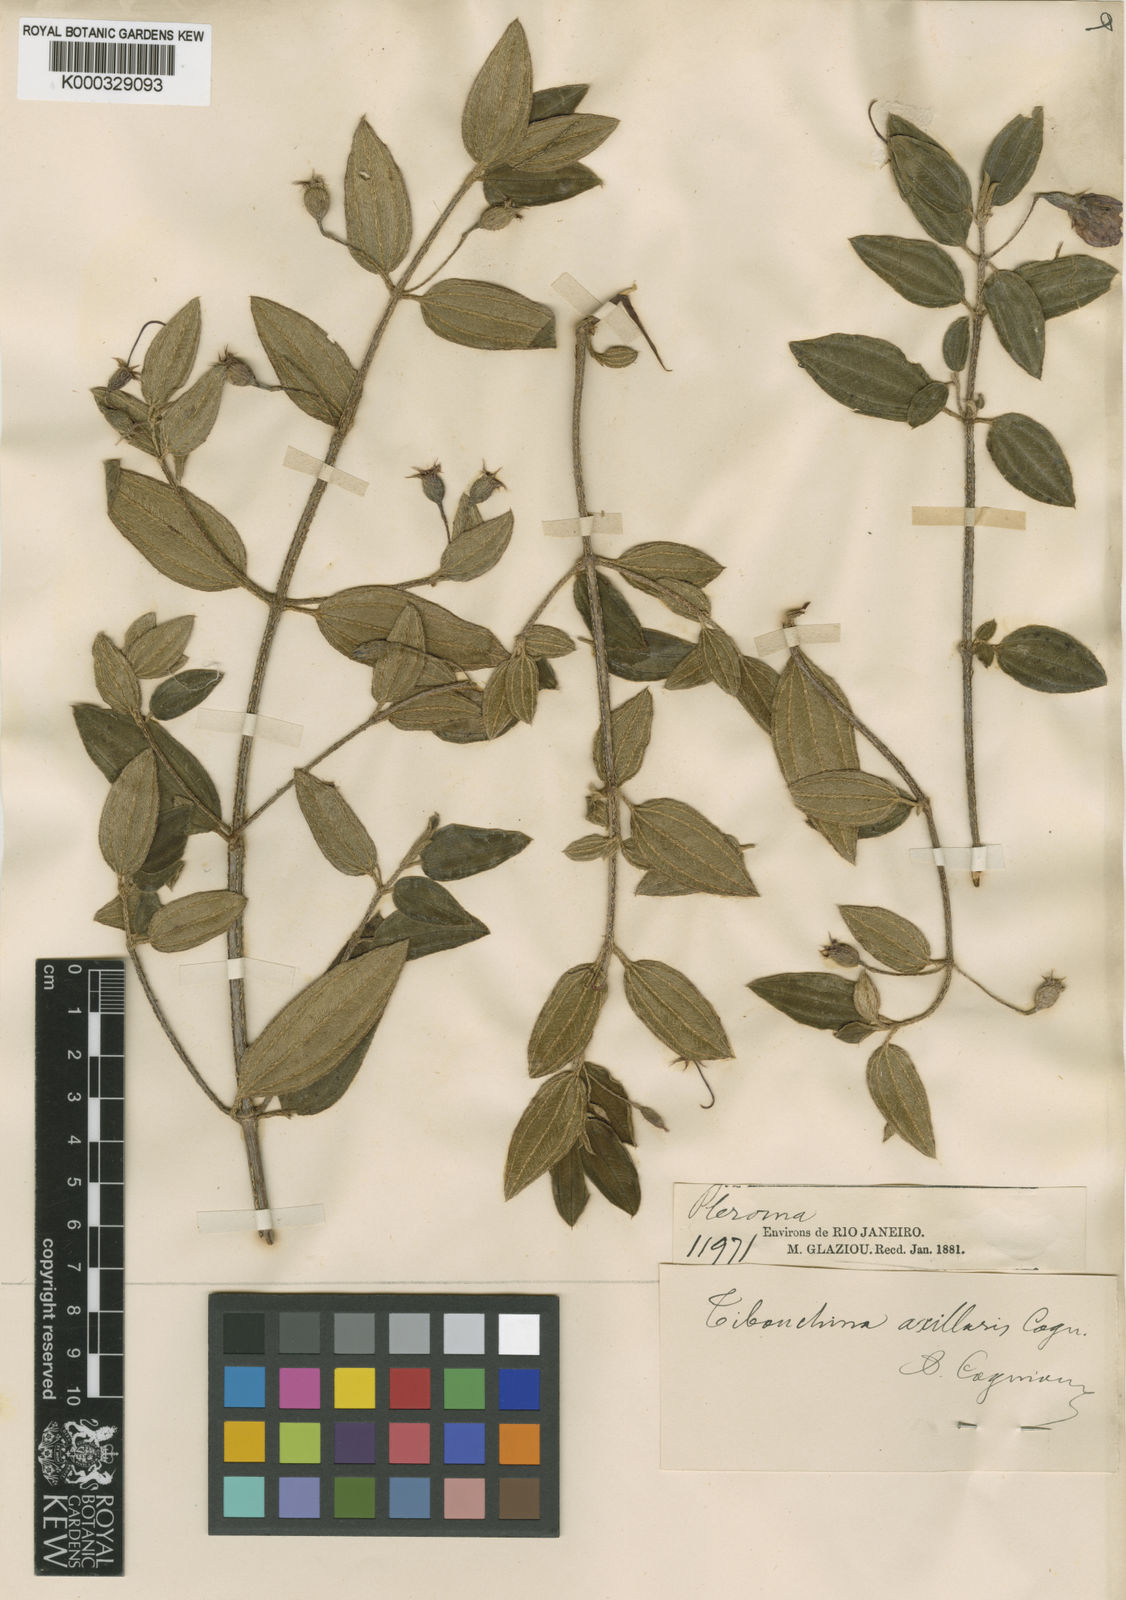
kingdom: Plantae
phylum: Tracheophyta
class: Magnoliopsida
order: Myrtales
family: Melastomataceae
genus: Pleroma
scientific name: Pleroma axillare
